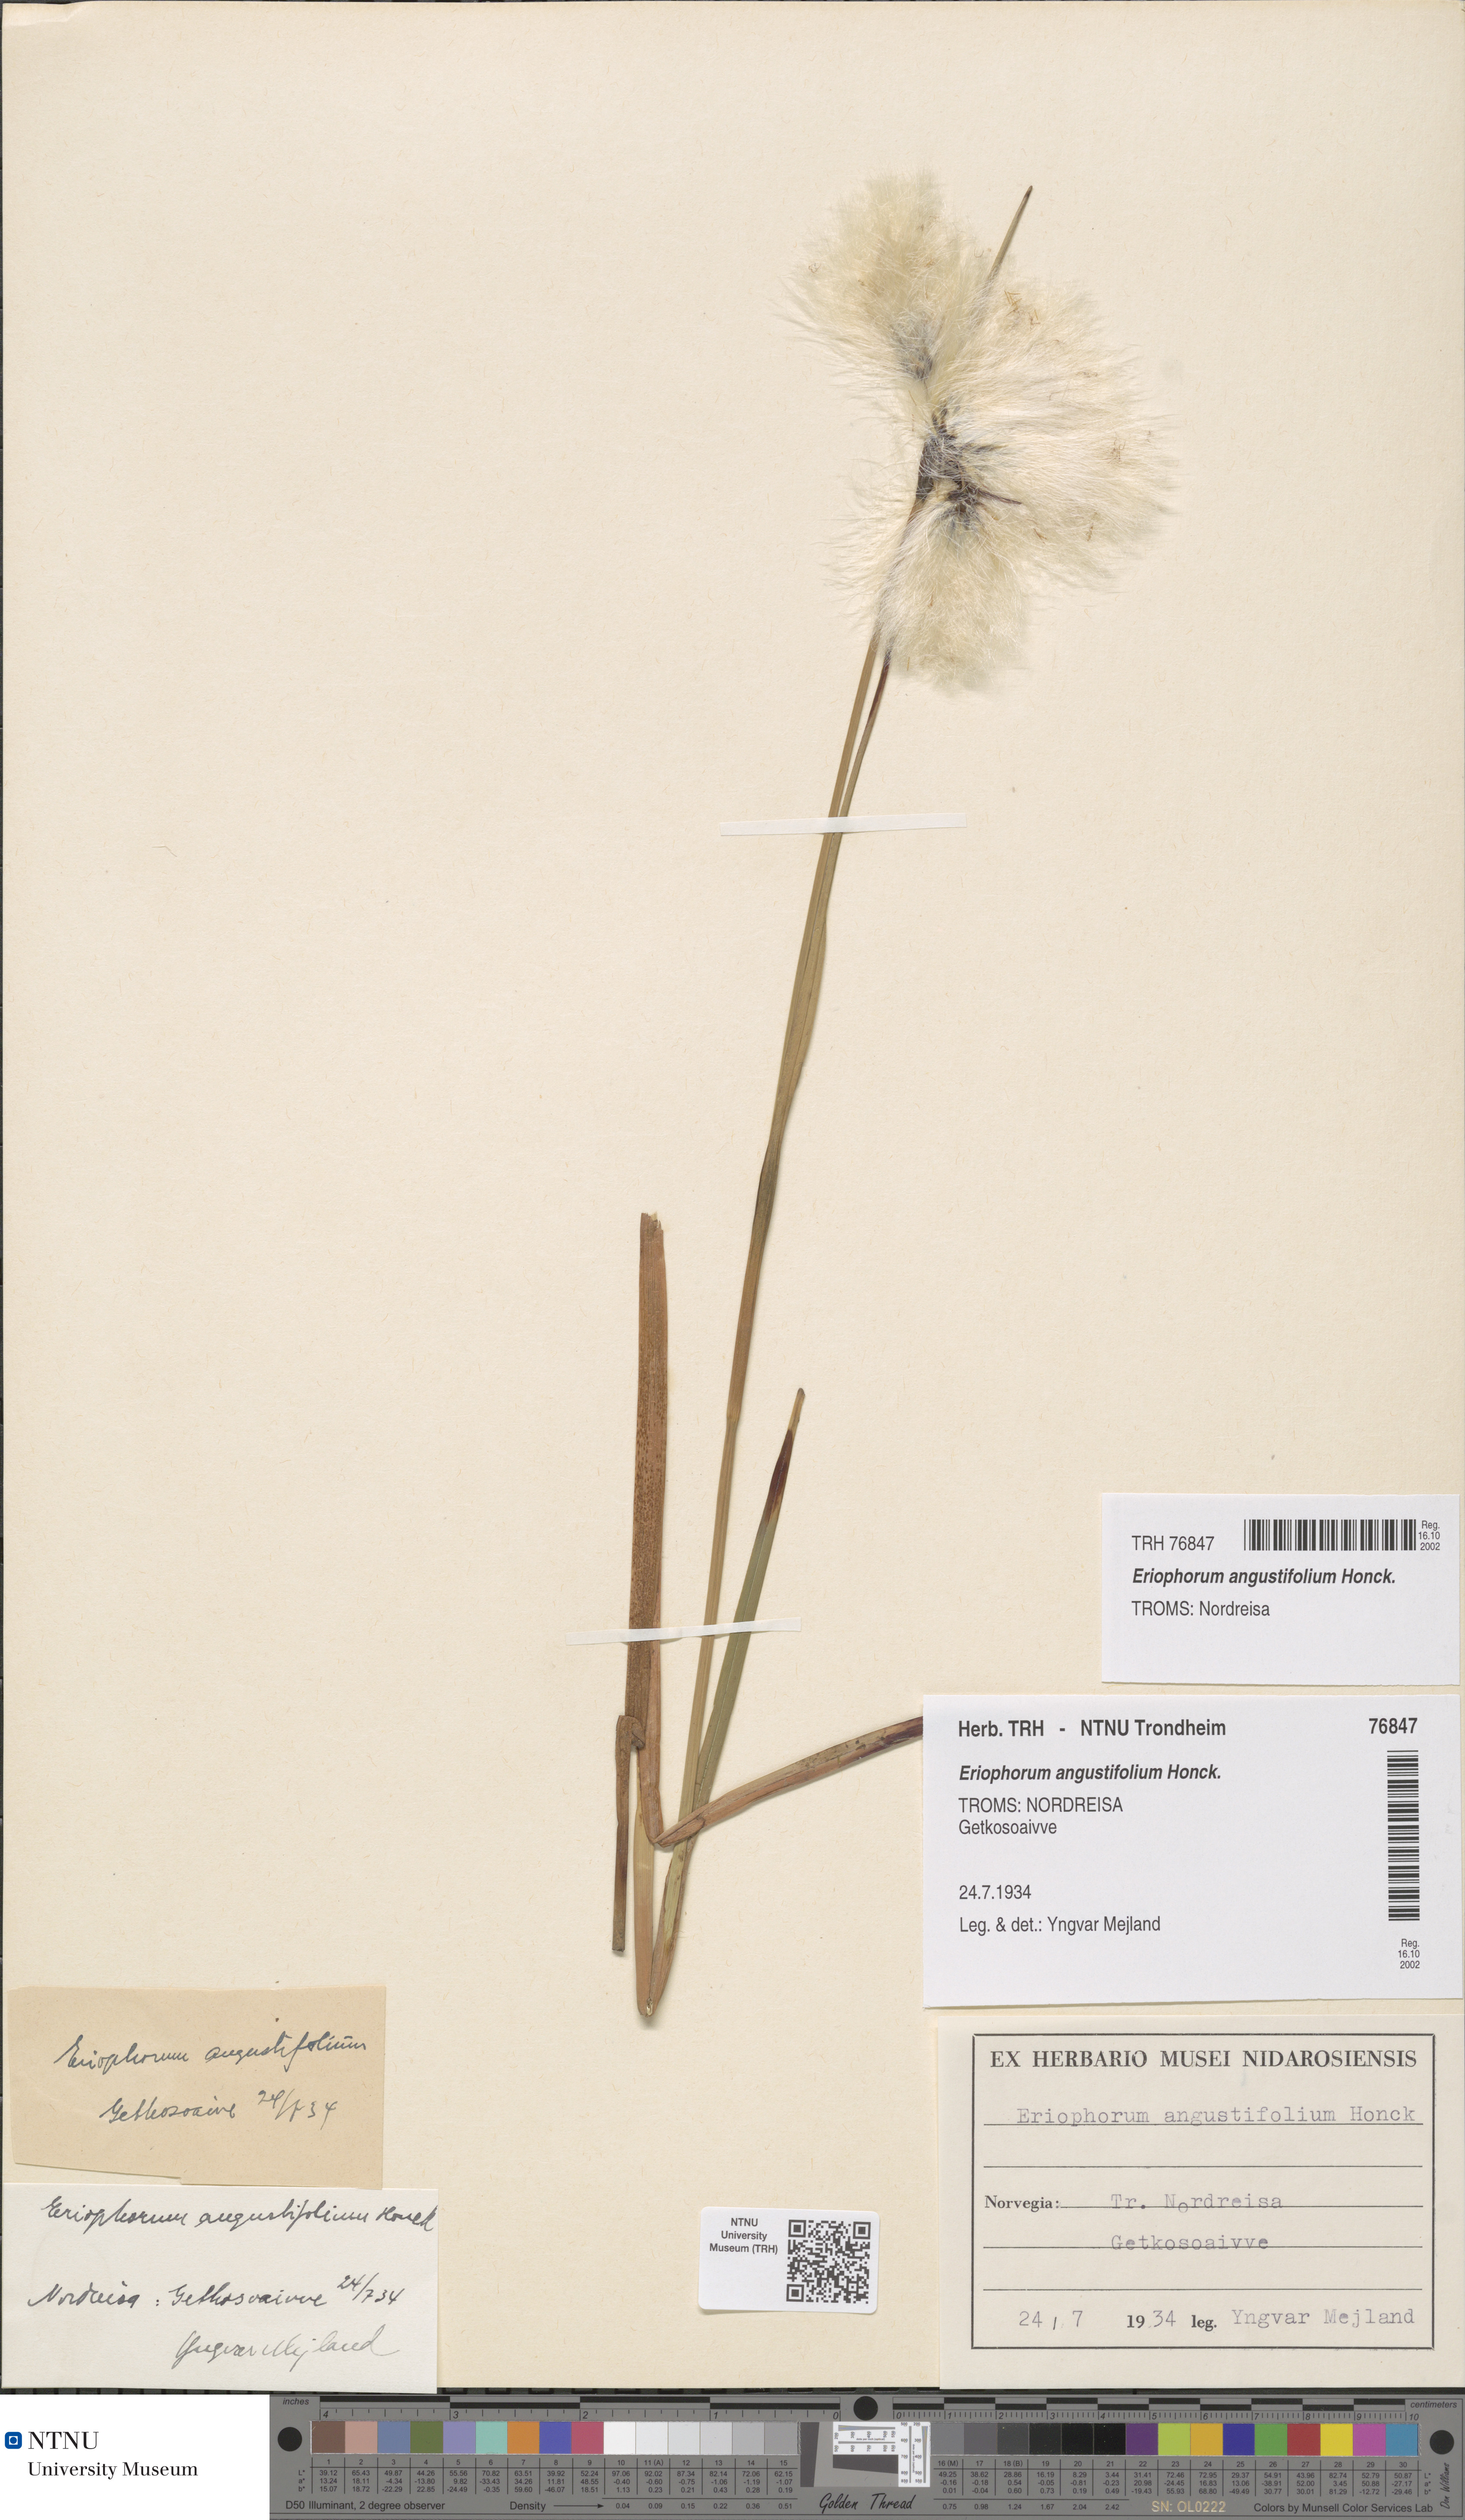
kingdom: Plantae
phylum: Tracheophyta
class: Liliopsida
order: Poales
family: Cyperaceae
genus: Eriophorum
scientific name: Eriophorum angustifolium
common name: Common cottongrass
